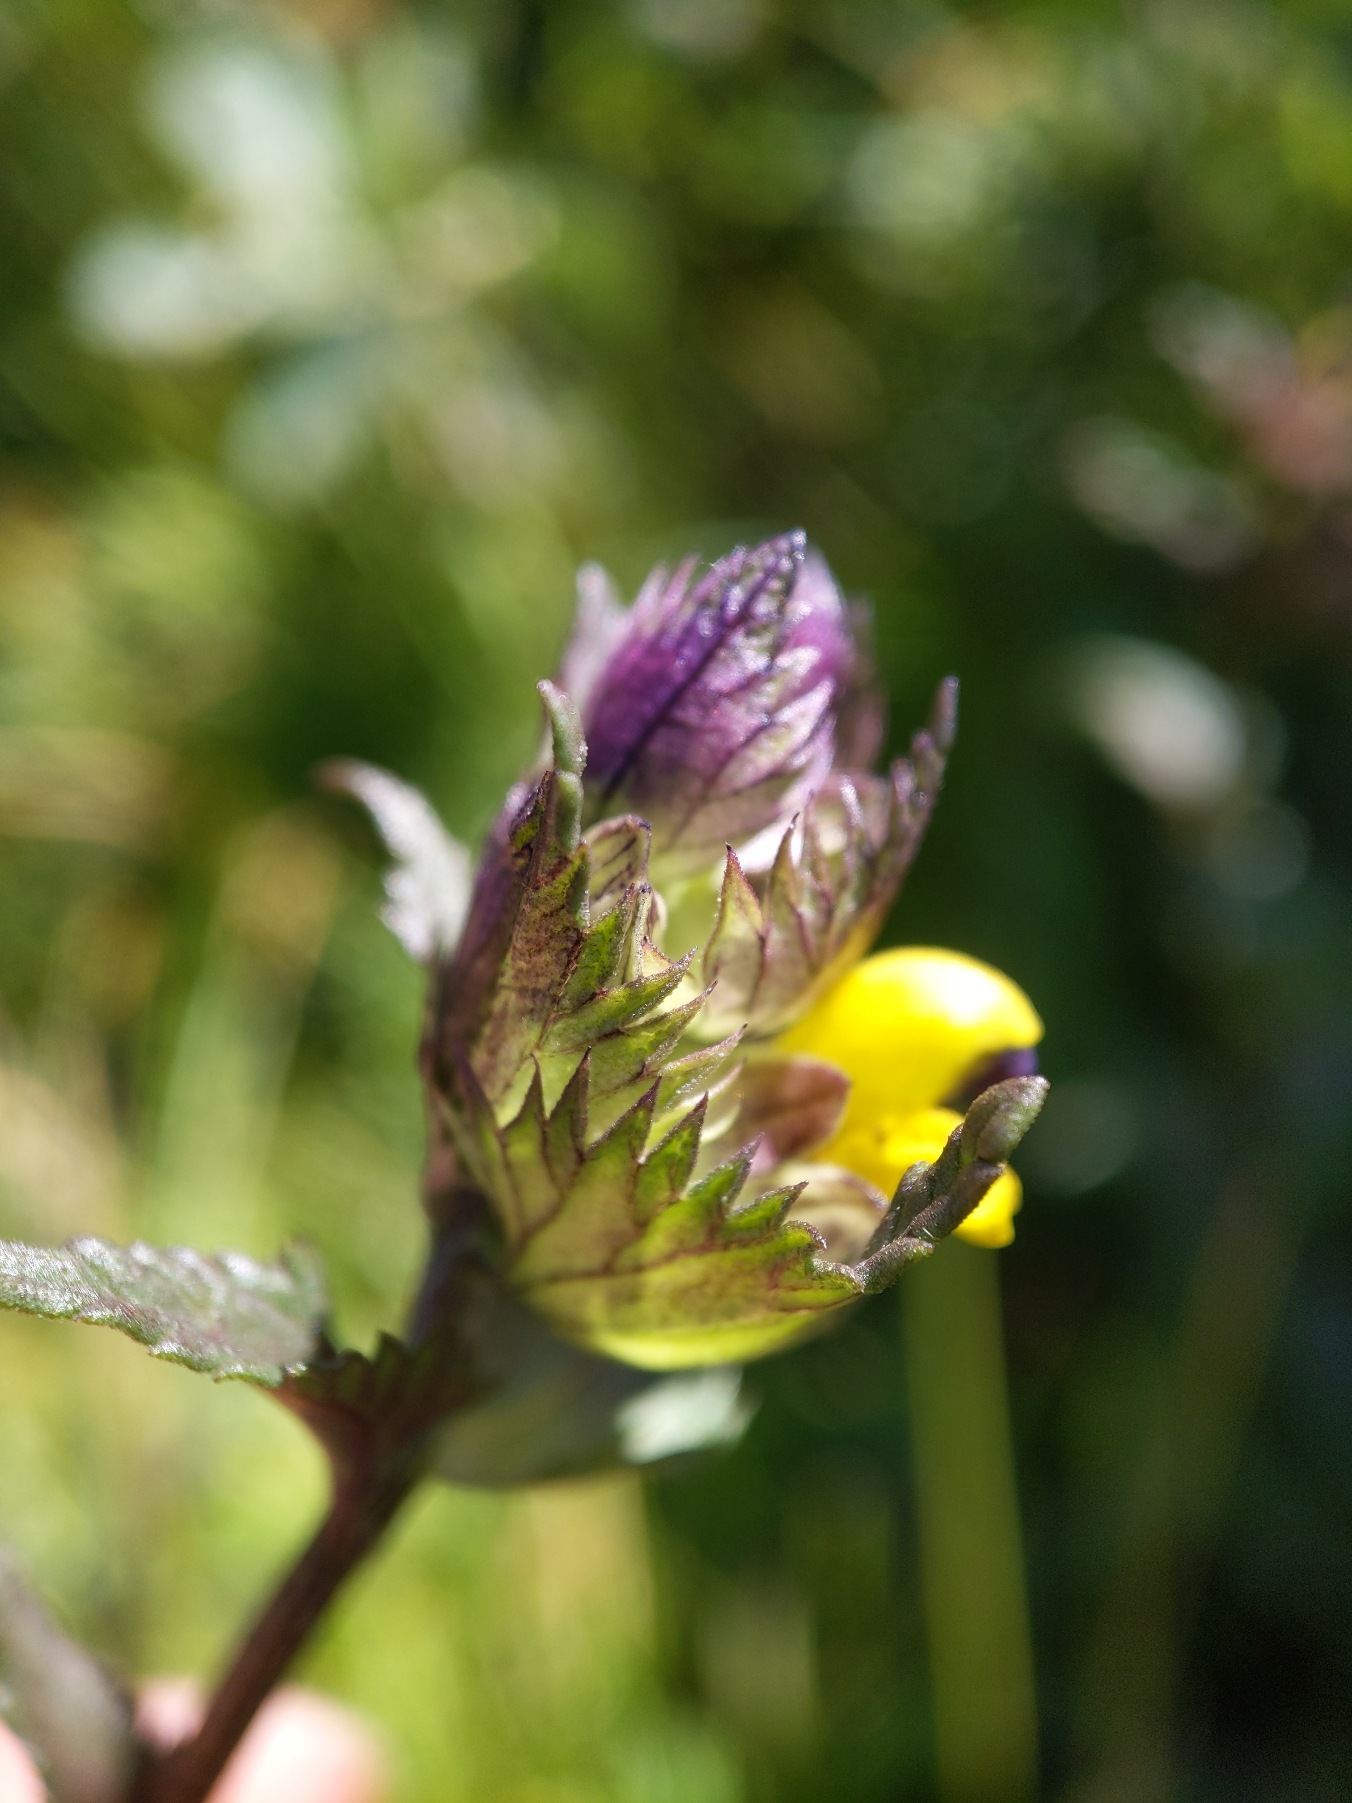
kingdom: Plantae
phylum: Tracheophyta
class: Magnoliopsida
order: Lamiales
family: Orobanchaceae
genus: Rhinanthus
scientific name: Rhinanthus minor
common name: Liden skjaller
